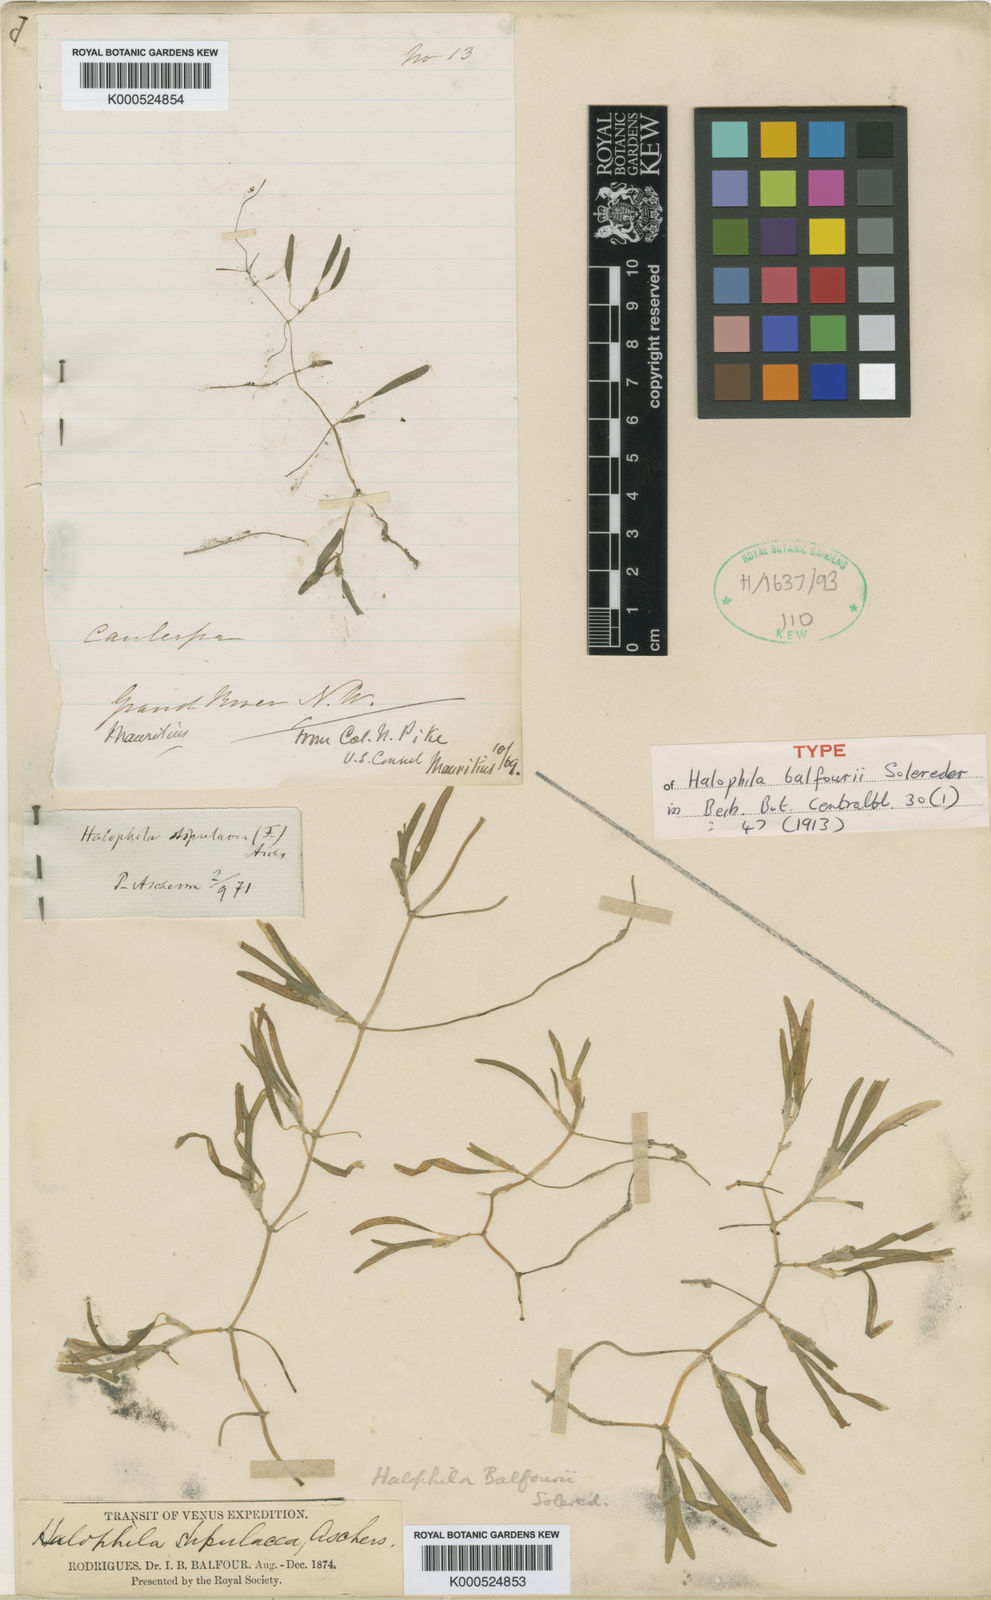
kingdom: Plantae
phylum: Tracheophyta
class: Liliopsida
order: Alismatales
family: Hydrocharitaceae
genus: Halophila
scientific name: Halophila stipulacea
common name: Species code: hs
